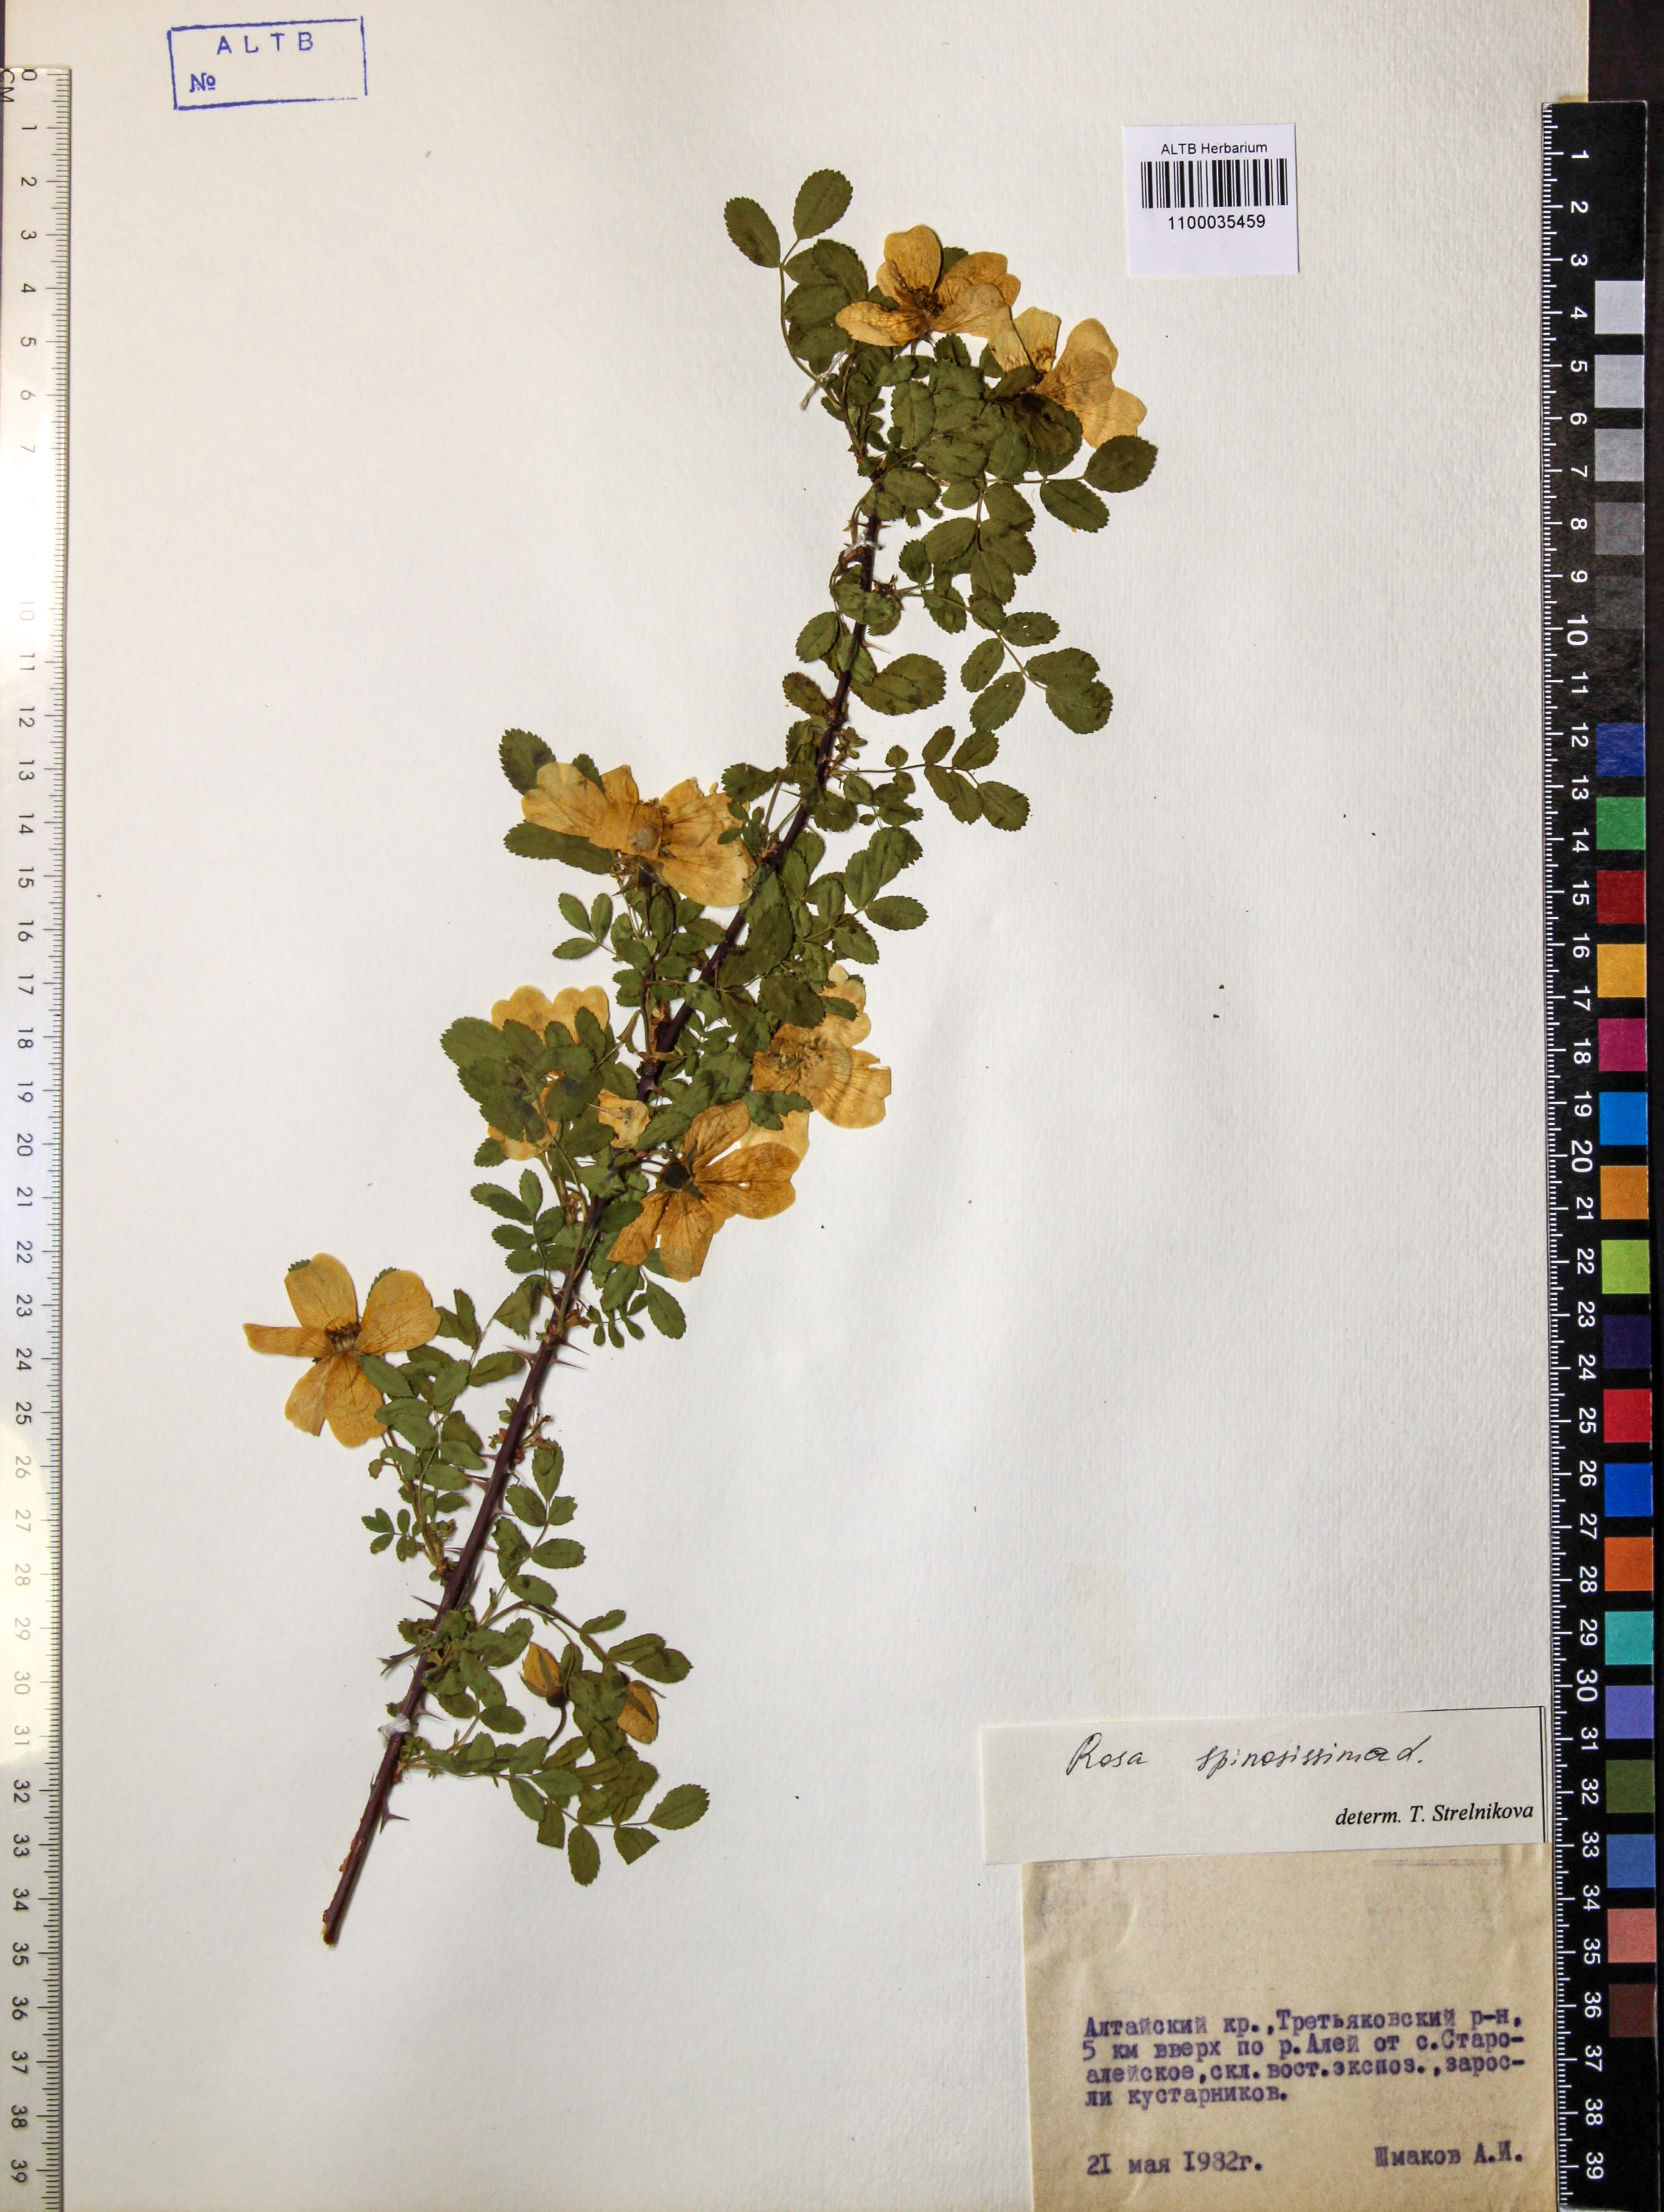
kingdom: Plantae
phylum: Tracheophyta
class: Magnoliopsida
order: Rosales
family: Rosaceae
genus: Rosa
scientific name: Rosa spinosissima
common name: Burnet rose
